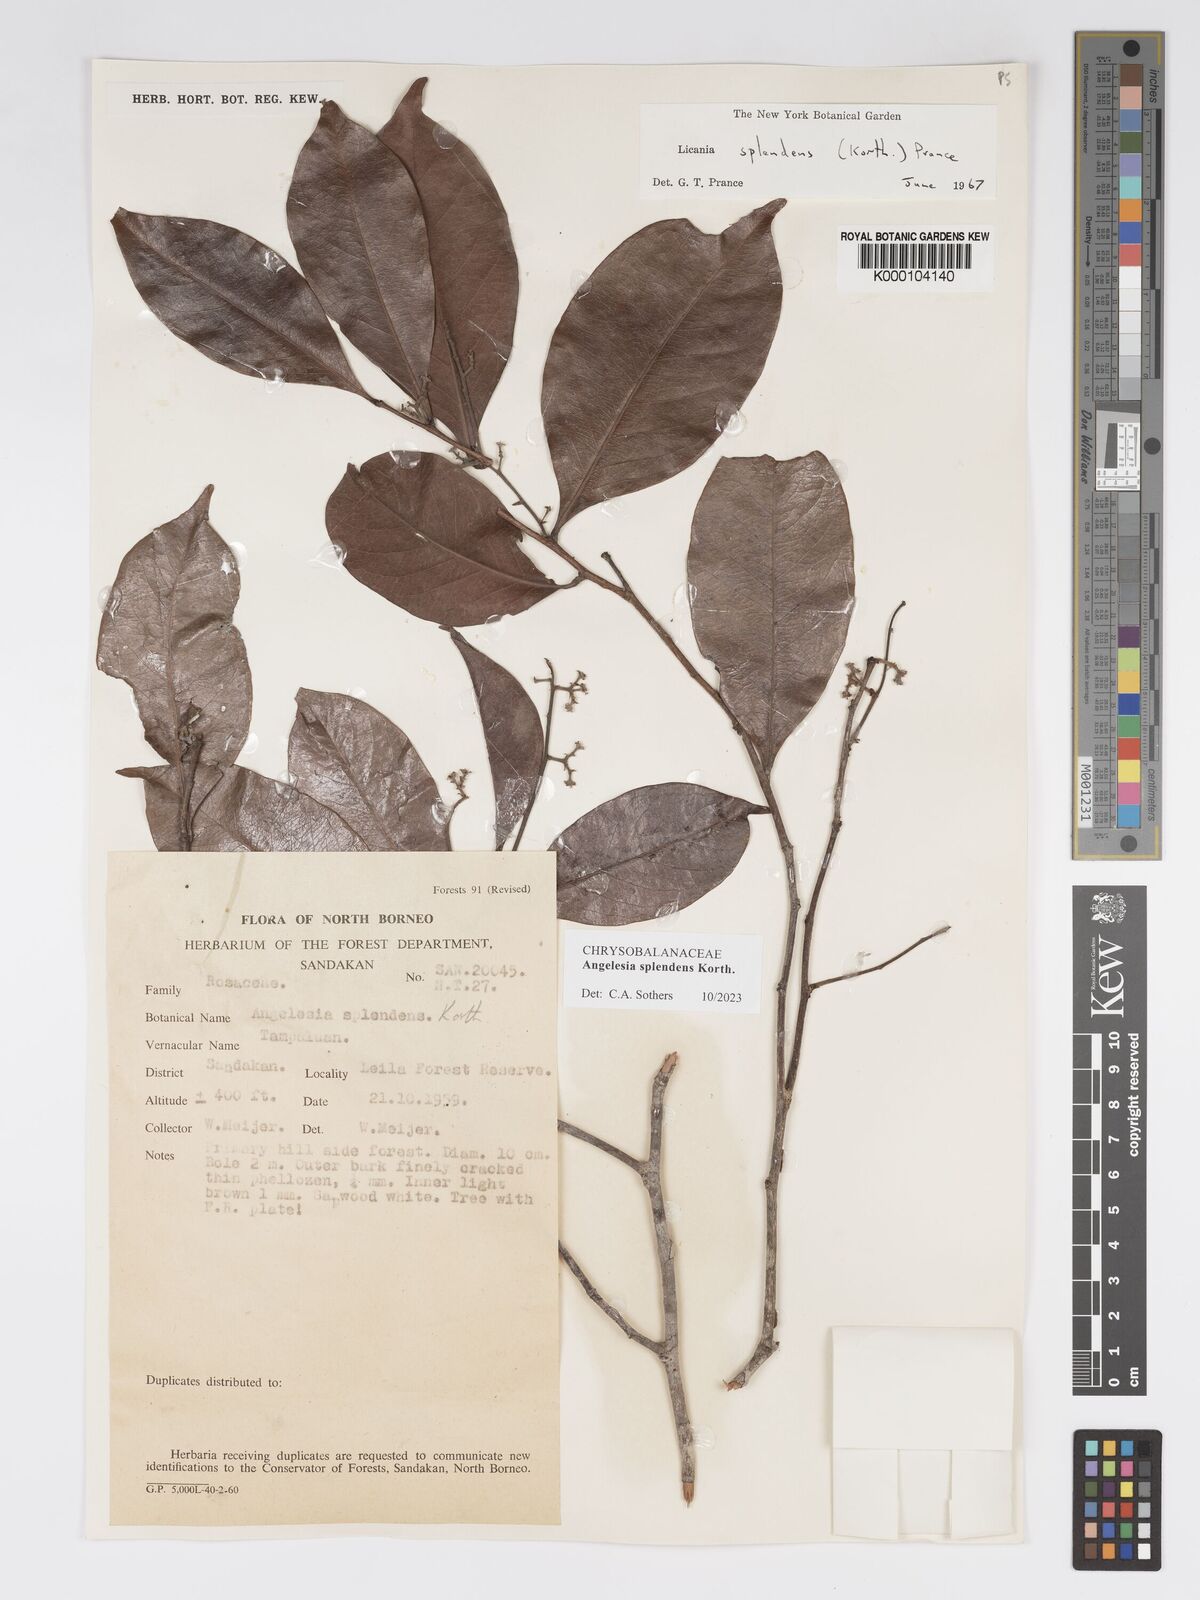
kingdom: Plantae
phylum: Tracheophyta
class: Magnoliopsida
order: Malpighiales
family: Chrysobalanaceae
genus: Angelesia
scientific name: Angelesia splendens
